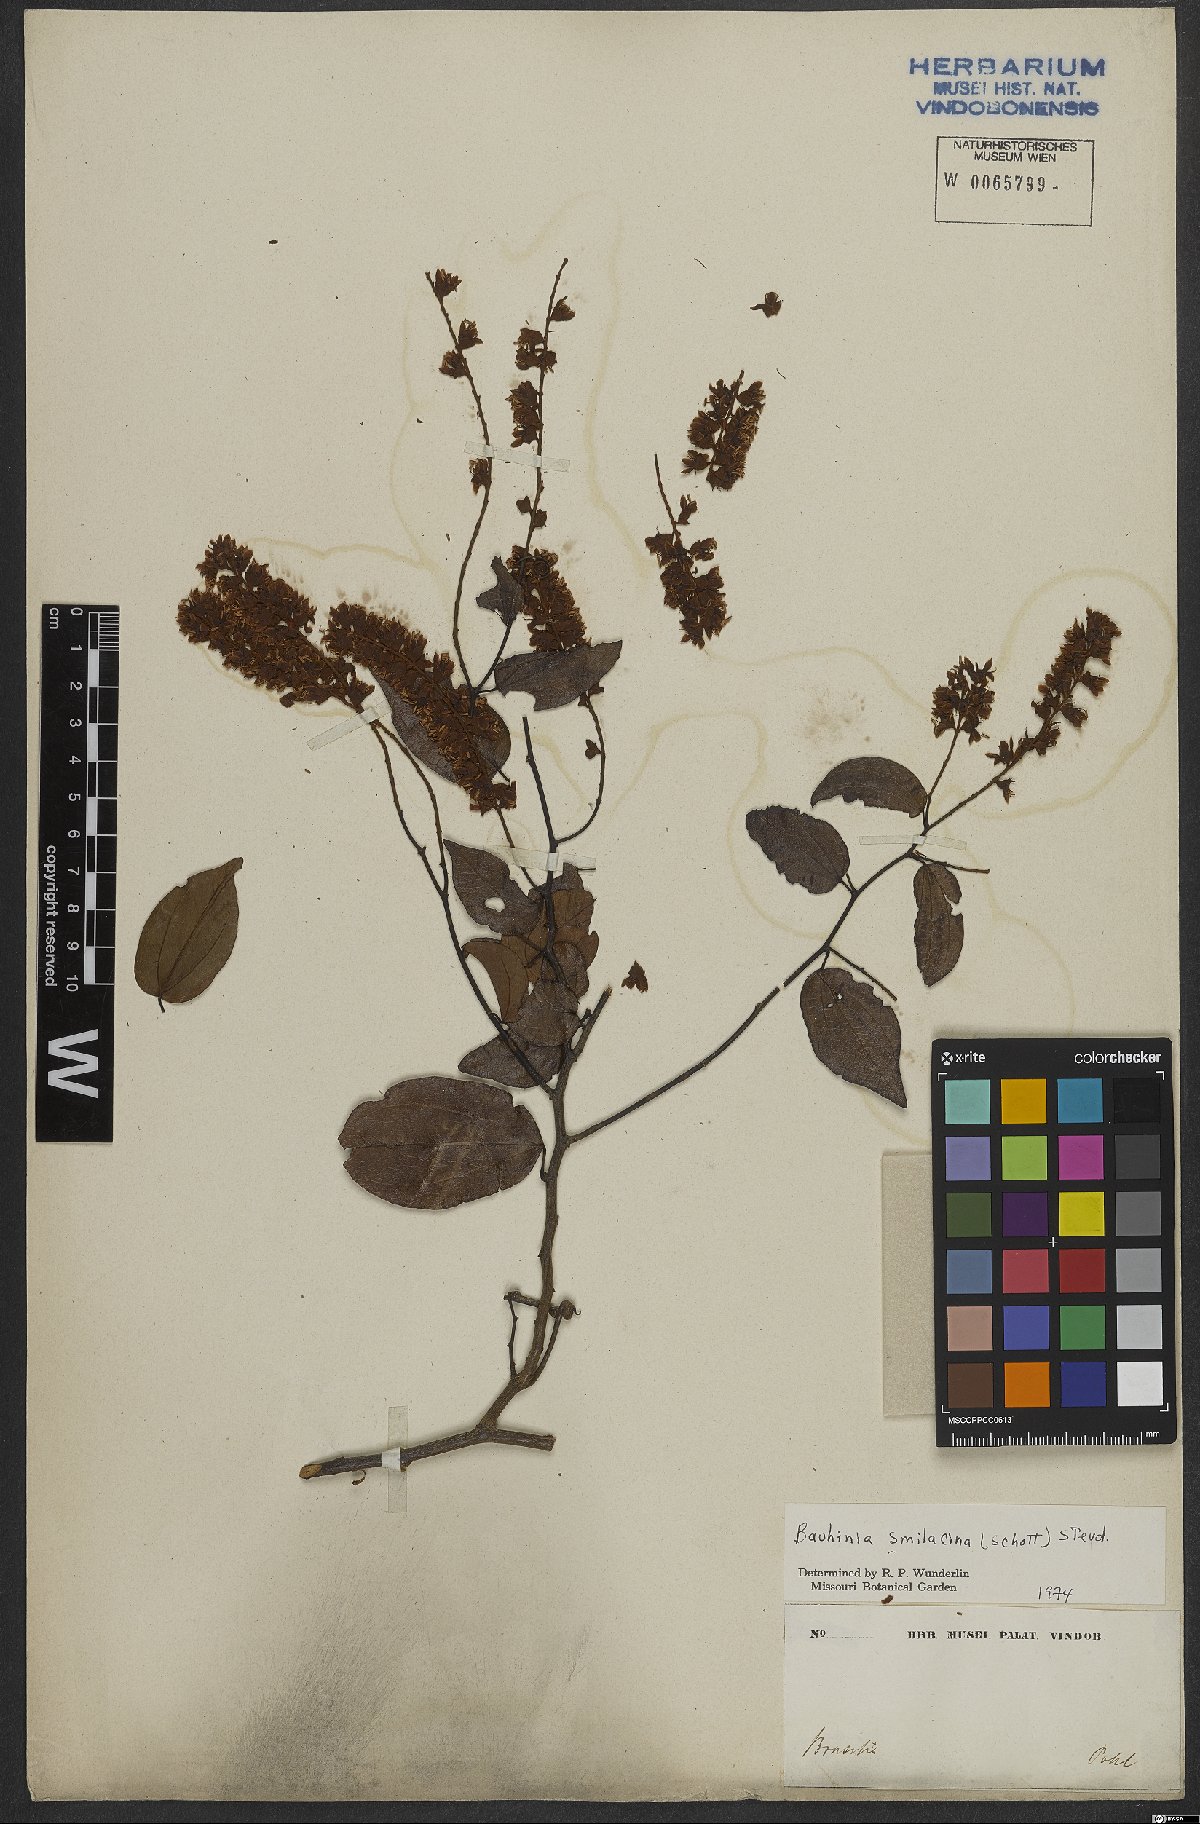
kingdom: Plantae
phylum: Tracheophyta
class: Magnoliopsida
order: Fabales
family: Fabaceae
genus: Schnella
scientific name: Schnella smilacina
